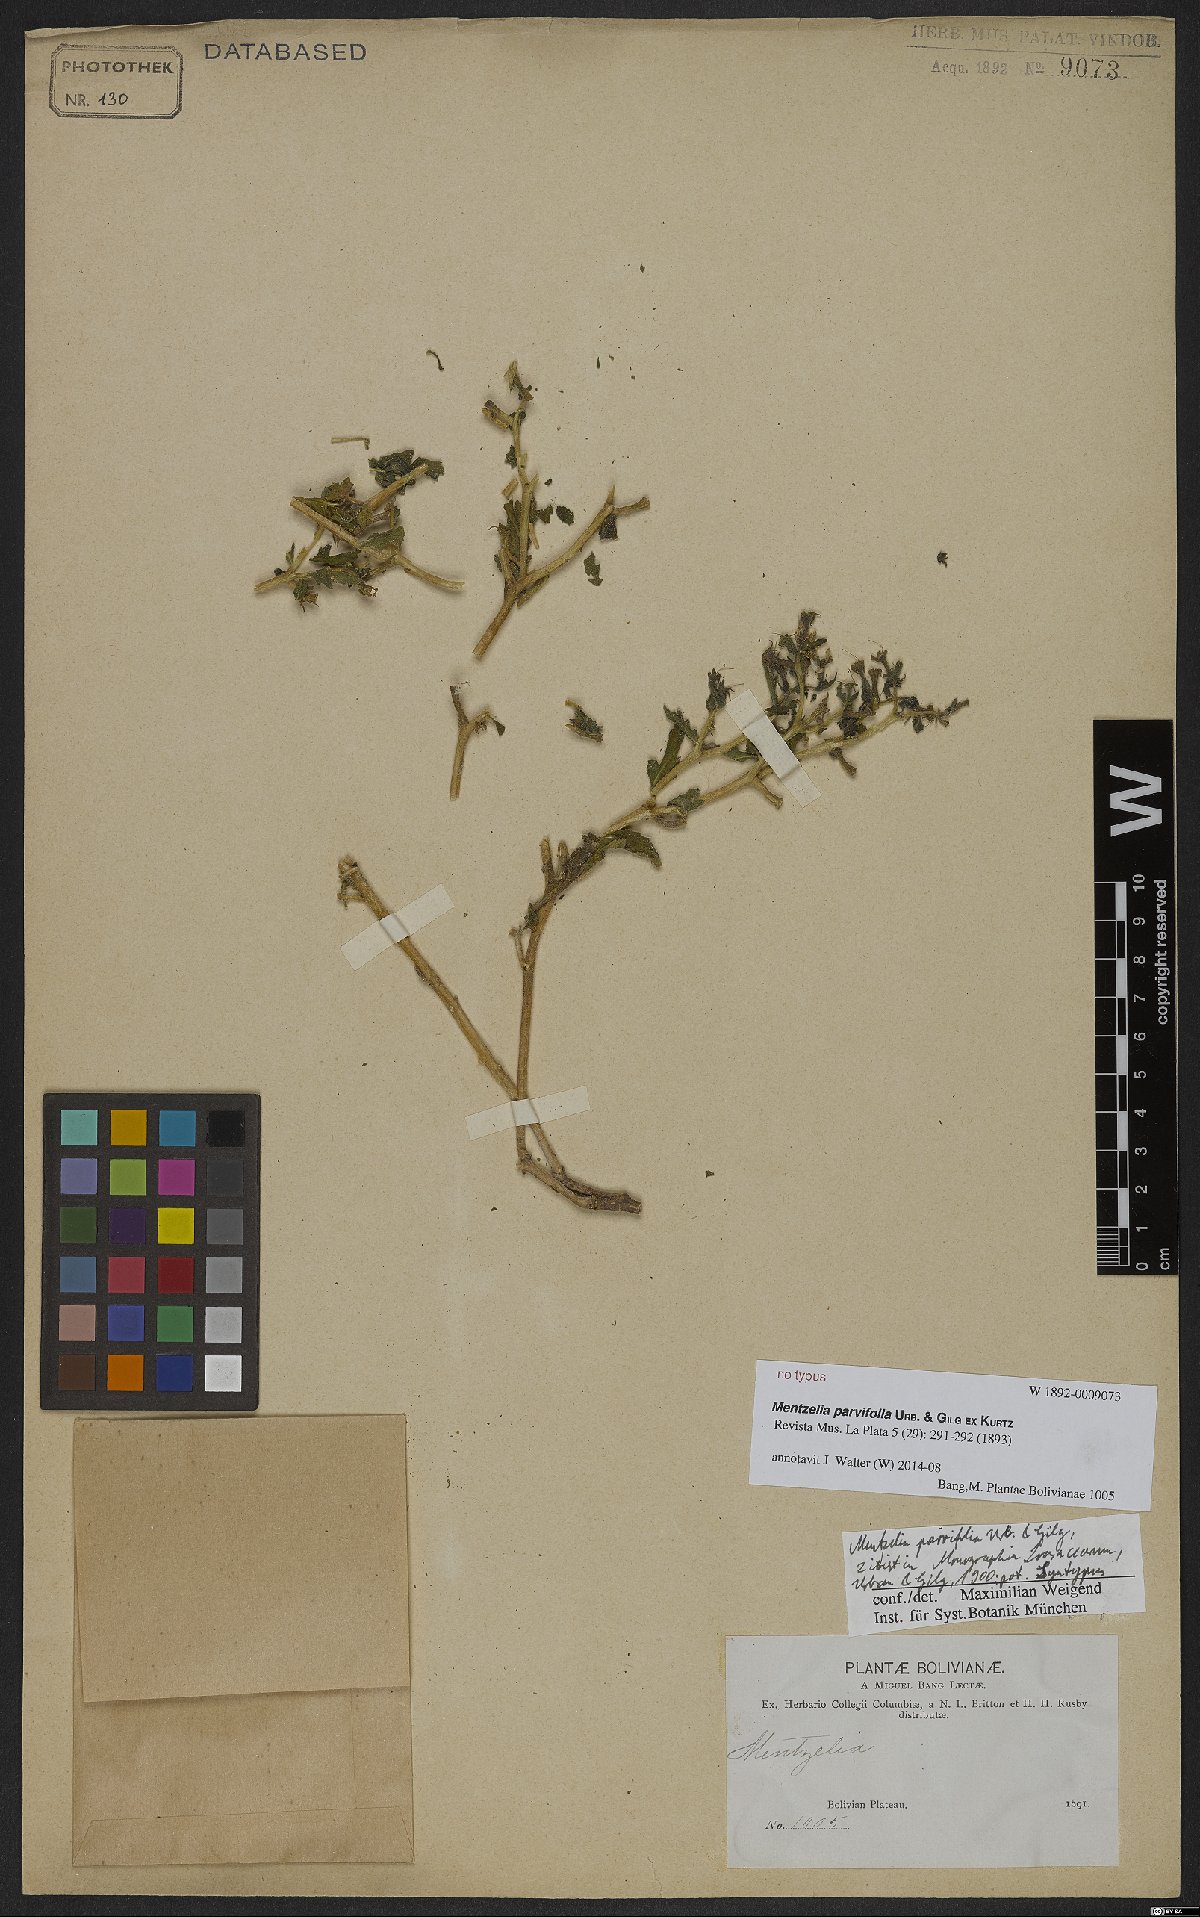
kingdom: Plantae
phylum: Tracheophyta
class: Magnoliopsida
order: Cornales
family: Loasaceae
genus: Mentzelia
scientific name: Mentzelia parvifolia
